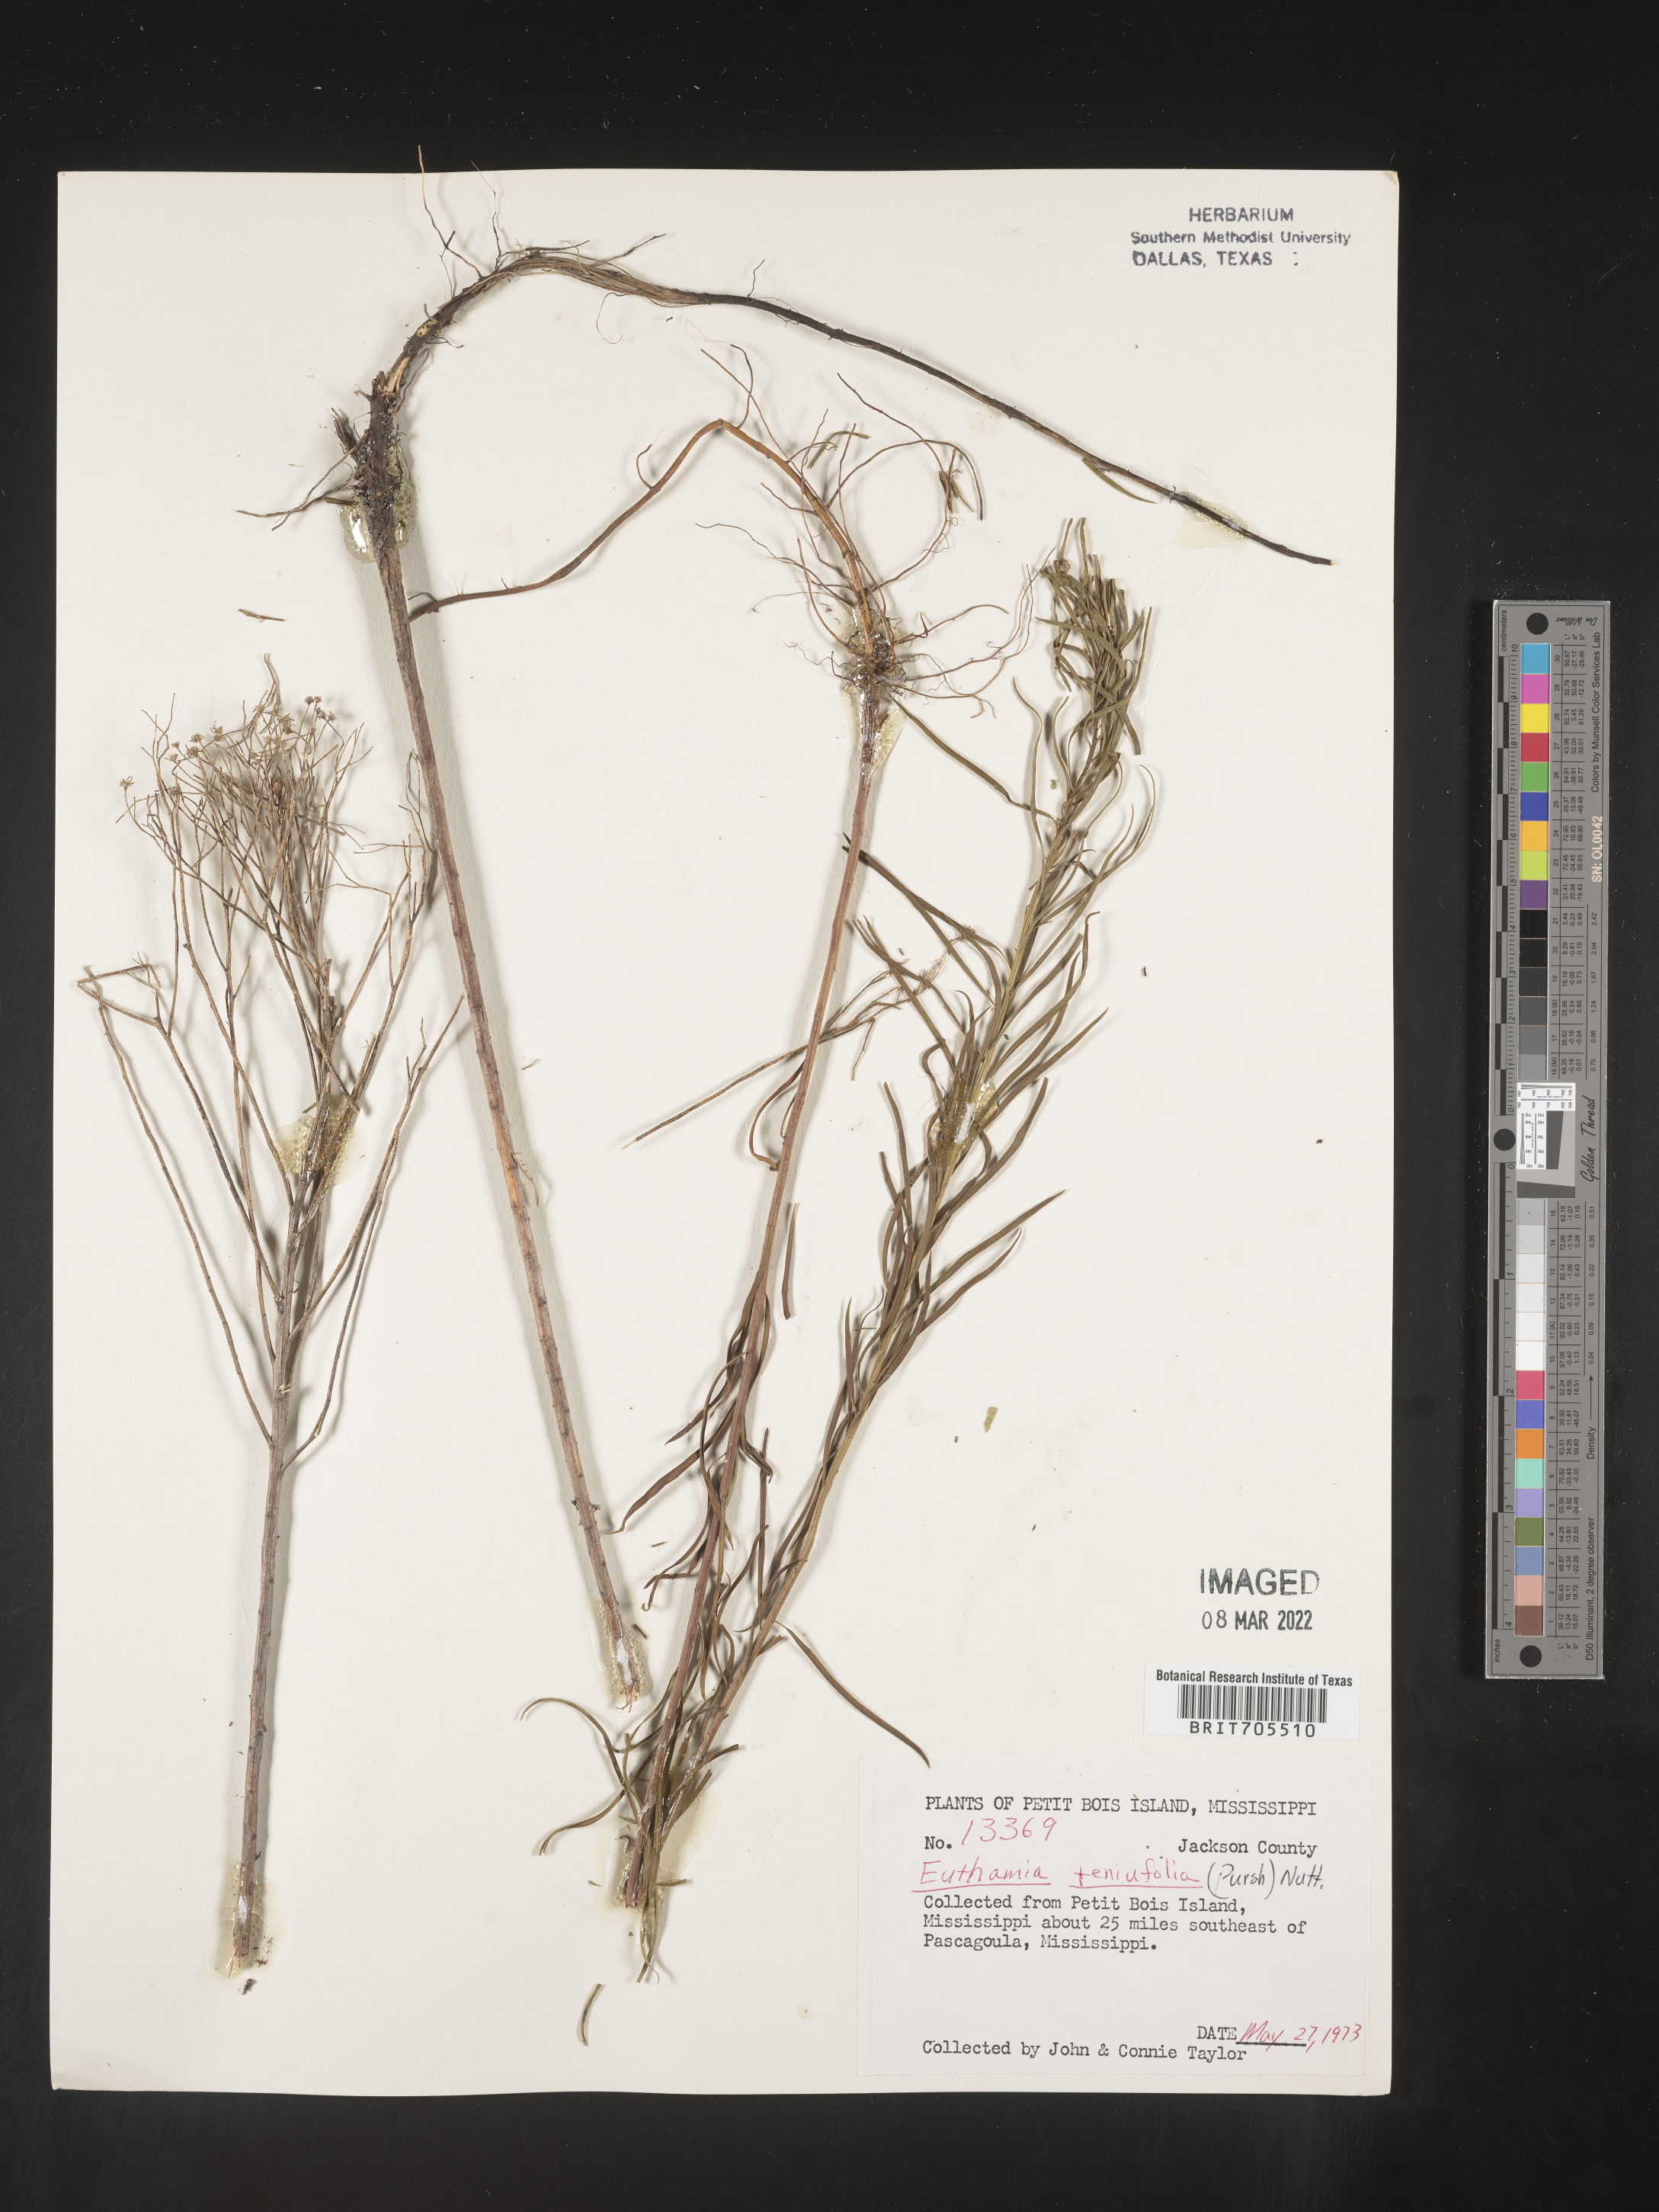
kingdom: Plantae
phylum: Tracheophyta
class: Magnoliopsida
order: Asterales
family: Asteraceae
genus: Euthamia
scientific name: Euthamia caroliniana
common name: Coastal plain goldentop
